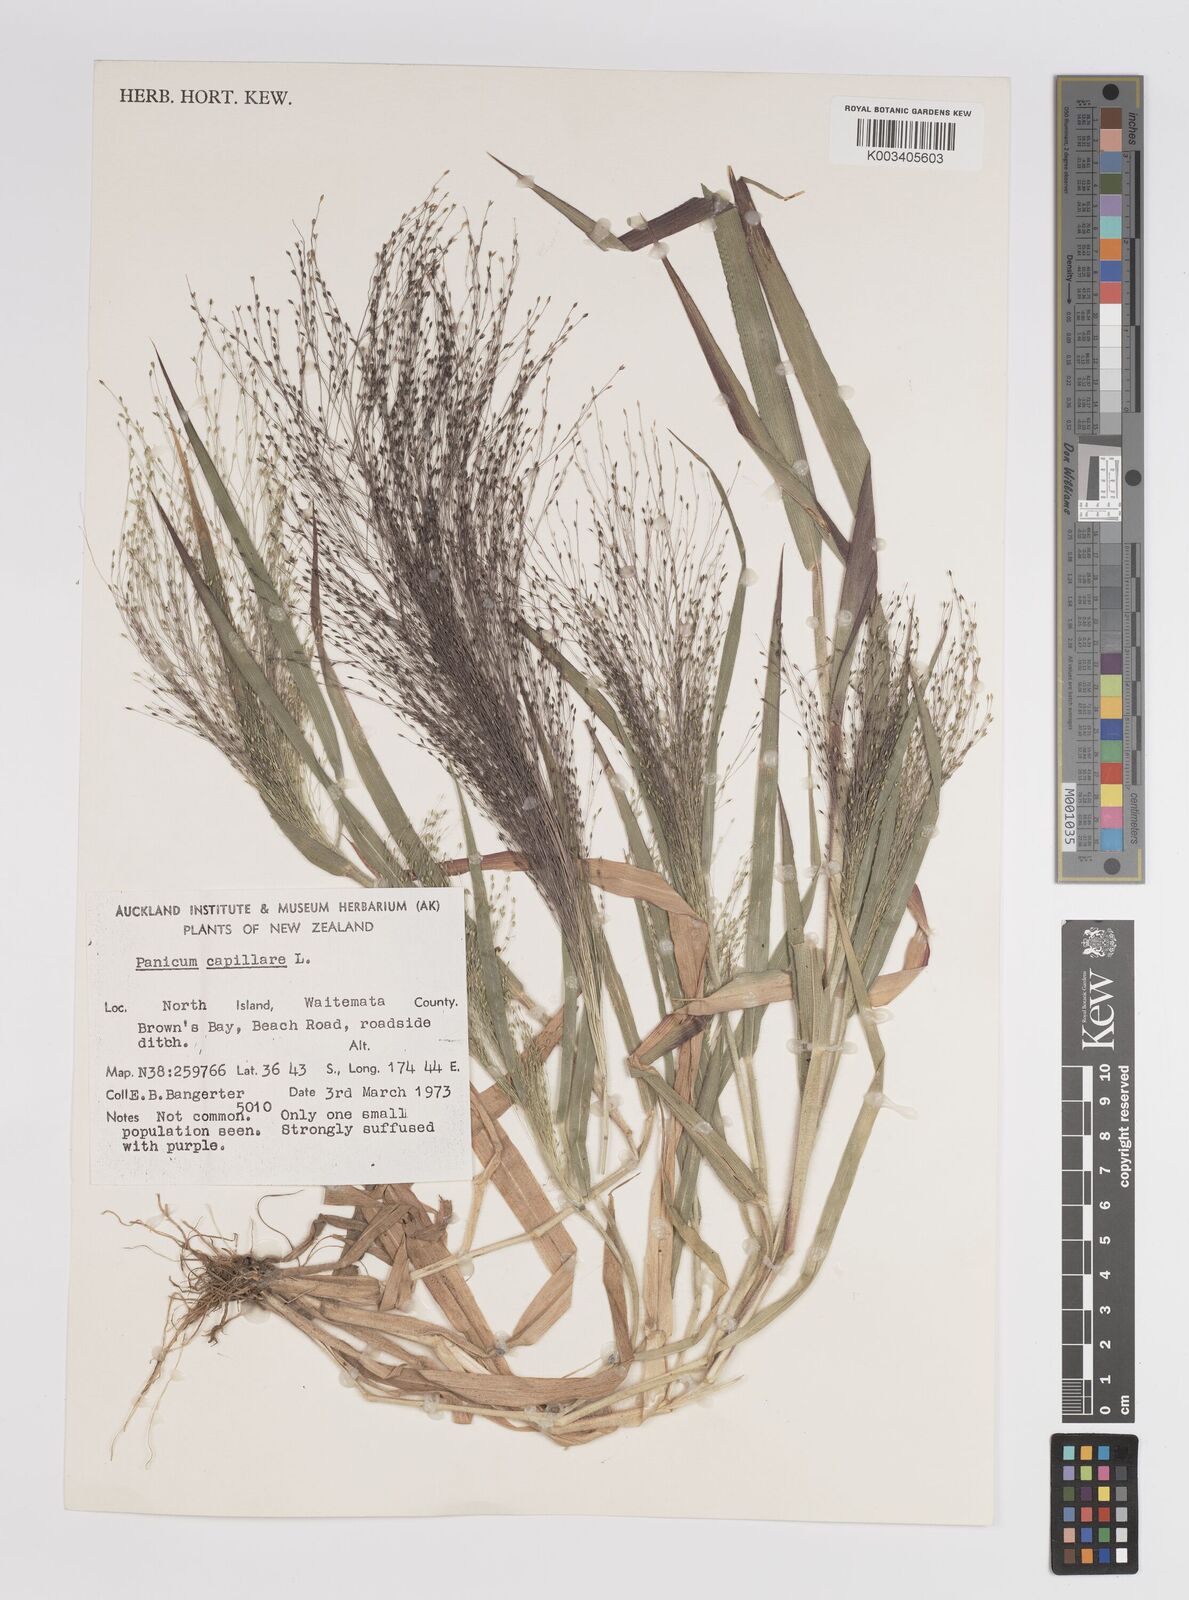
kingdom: Plantae
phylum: Tracheophyta
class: Liliopsida
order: Poales
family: Poaceae
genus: Panicum
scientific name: Panicum capillare
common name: Witch-grass
